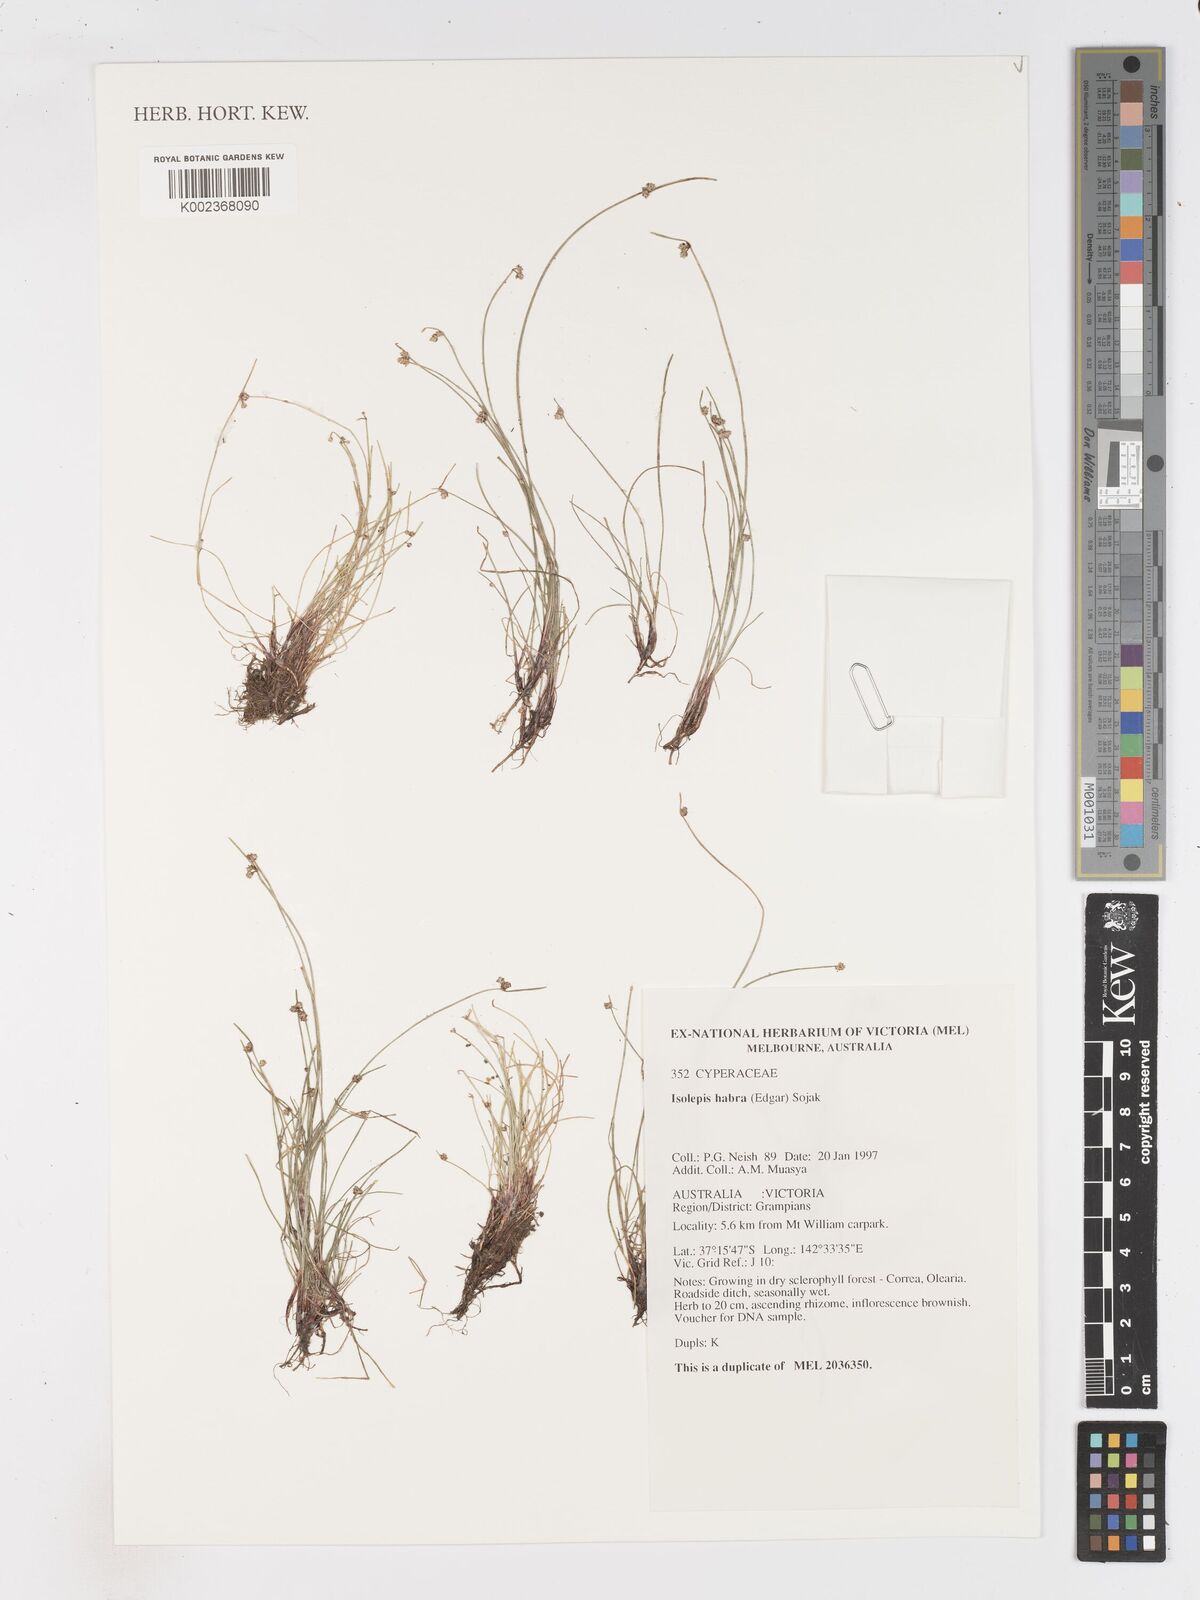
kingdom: Plantae
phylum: Tracheophyta
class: Liliopsida
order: Poales
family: Cyperaceae
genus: Isolepis
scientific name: Isolepis habra
